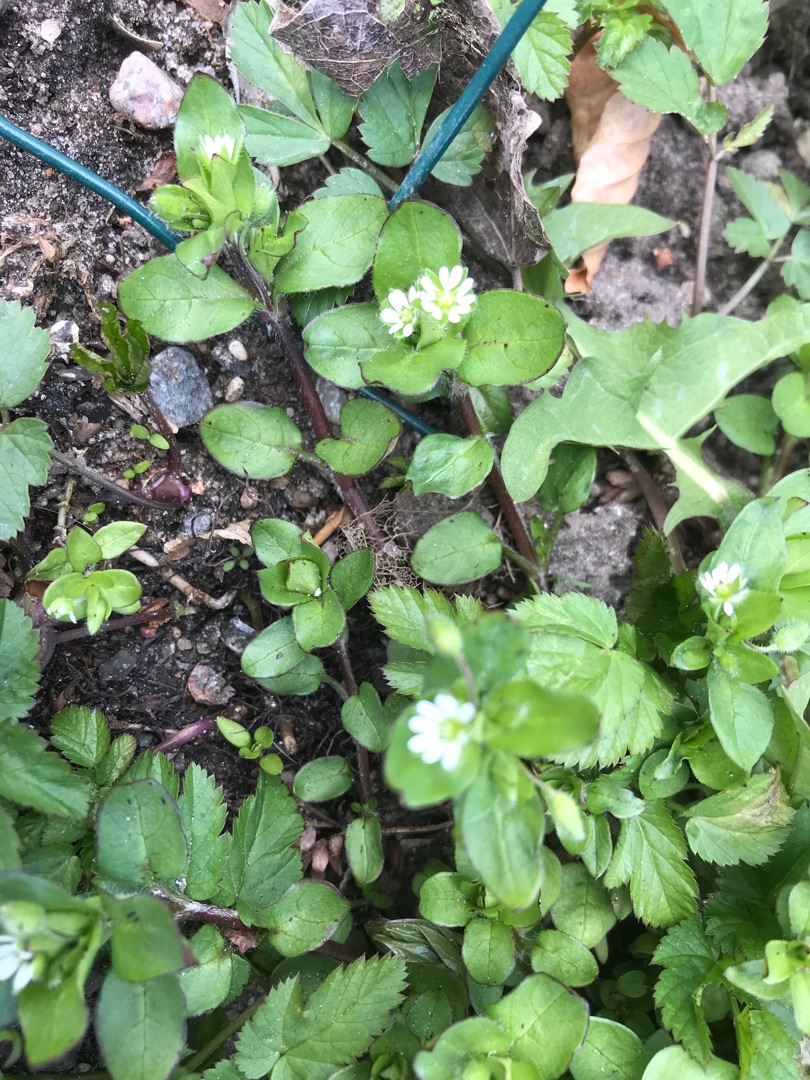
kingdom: Plantae
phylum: Tracheophyta
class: Magnoliopsida
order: Caryophyllales
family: Caryophyllaceae
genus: Stellaria
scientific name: Stellaria media
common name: Almindelig fuglegræs
